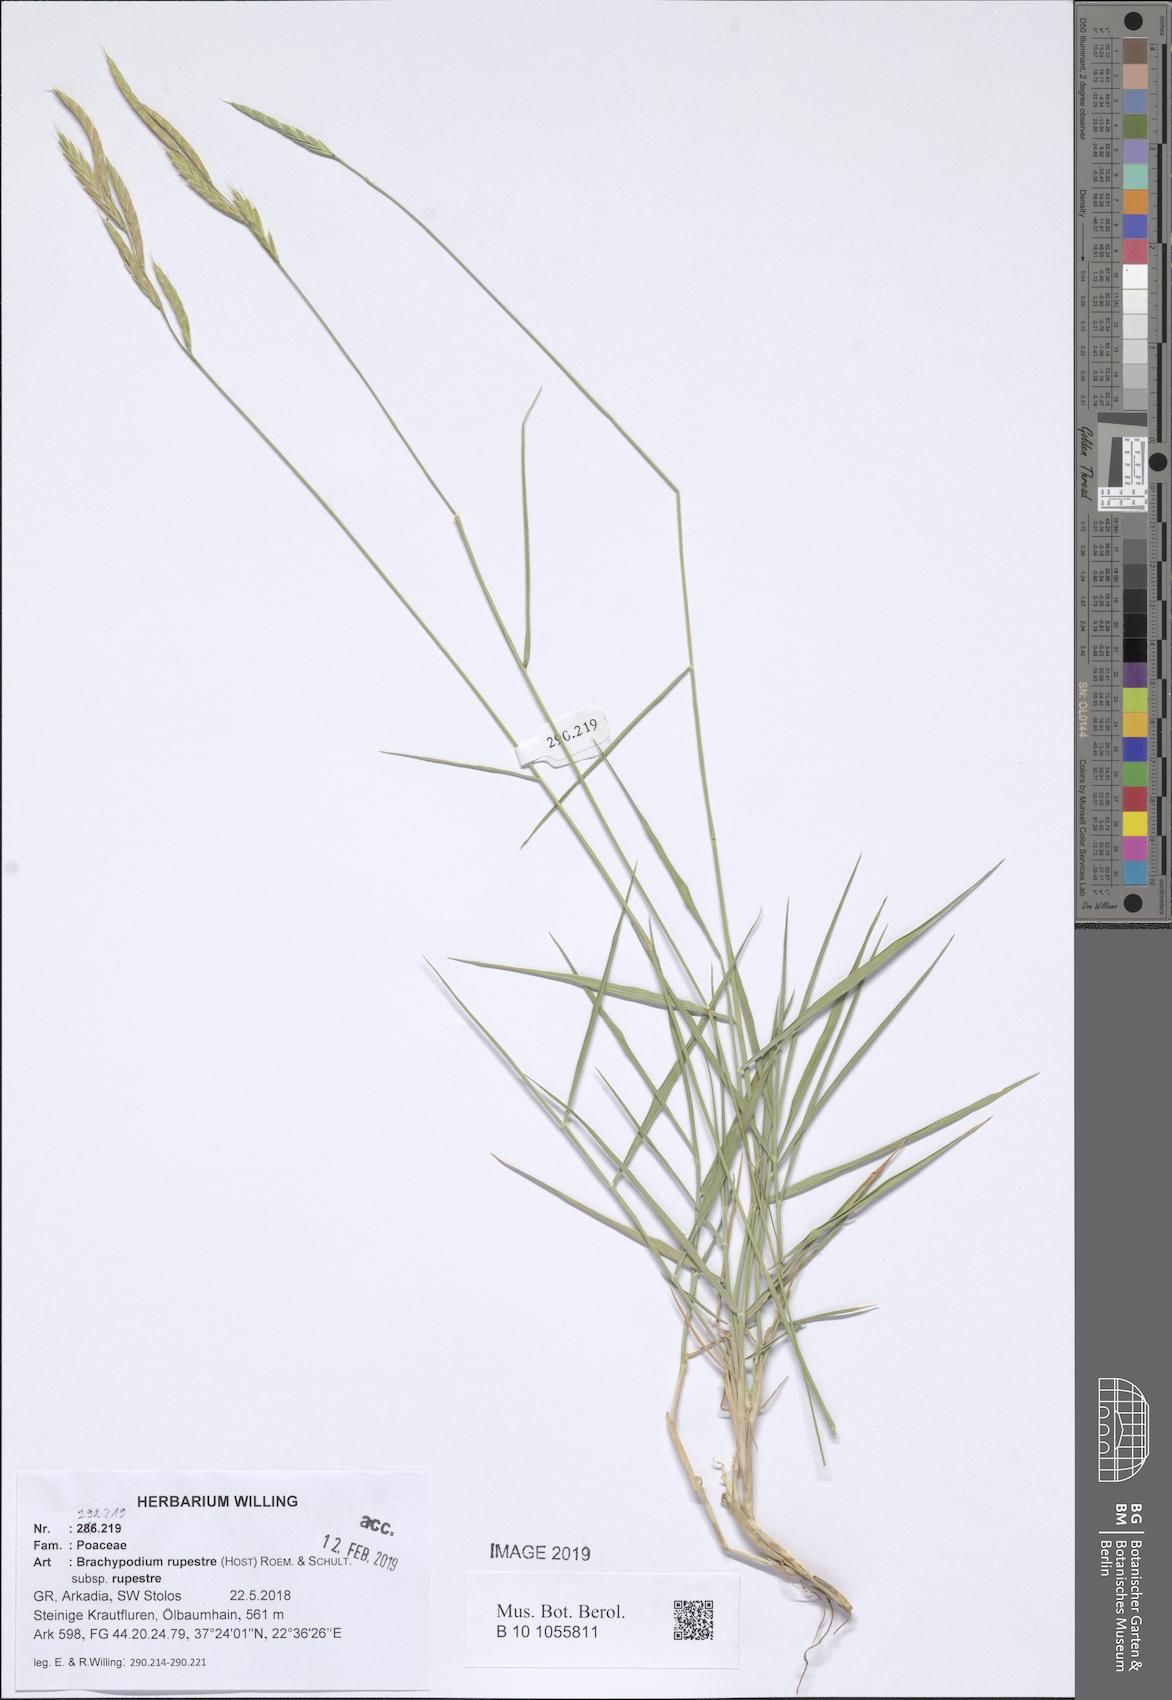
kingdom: Plantae
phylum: Tracheophyta
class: Liliopsida
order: Poales
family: Poaceae
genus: Brachypodium
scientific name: Brachypodium pinnatum
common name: Tor grass
